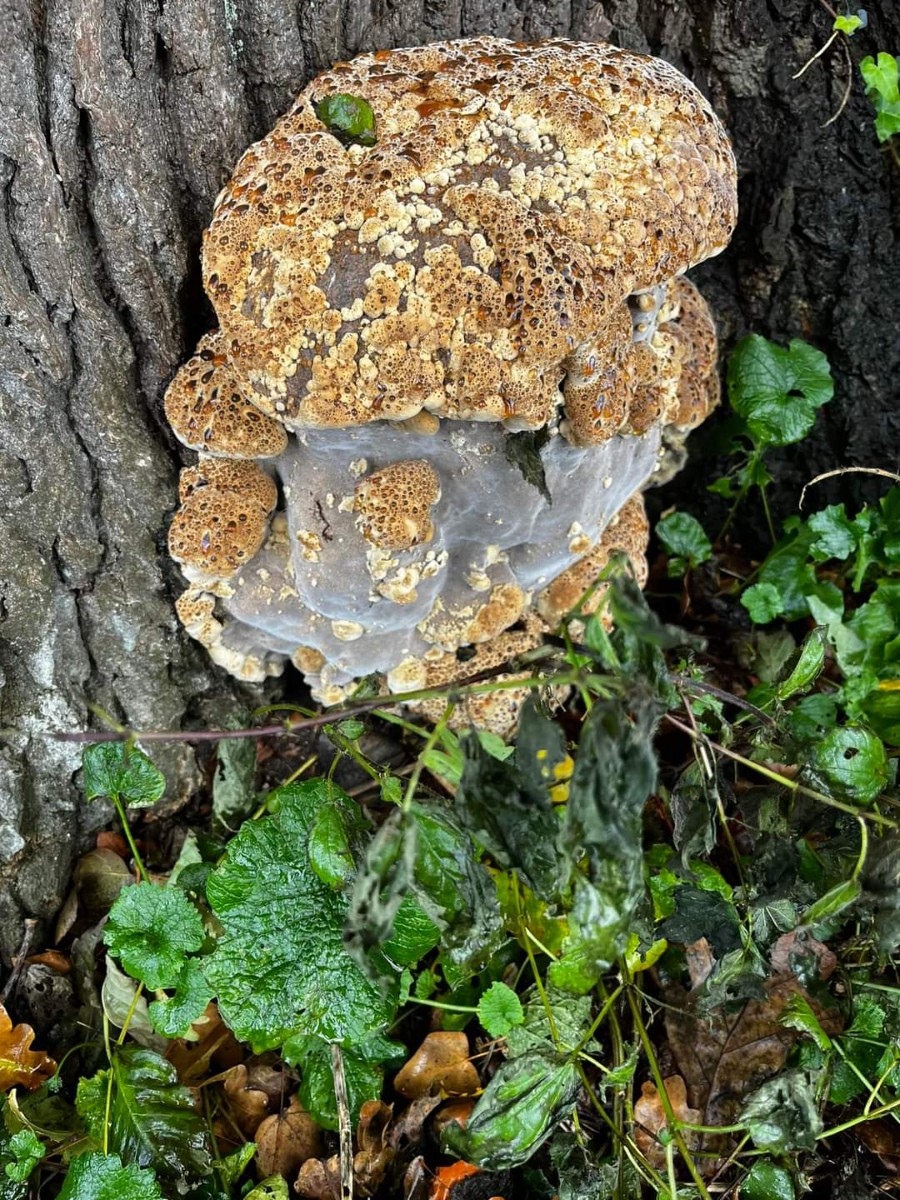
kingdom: Fungi
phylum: Basidiomycota
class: Agaricomycetes
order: Hymenochaetales
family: Hymenochaetaceae
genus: Pseudoinonotus
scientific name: Pseudoinonotus dryadeus
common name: ege-spejlporesvamp
